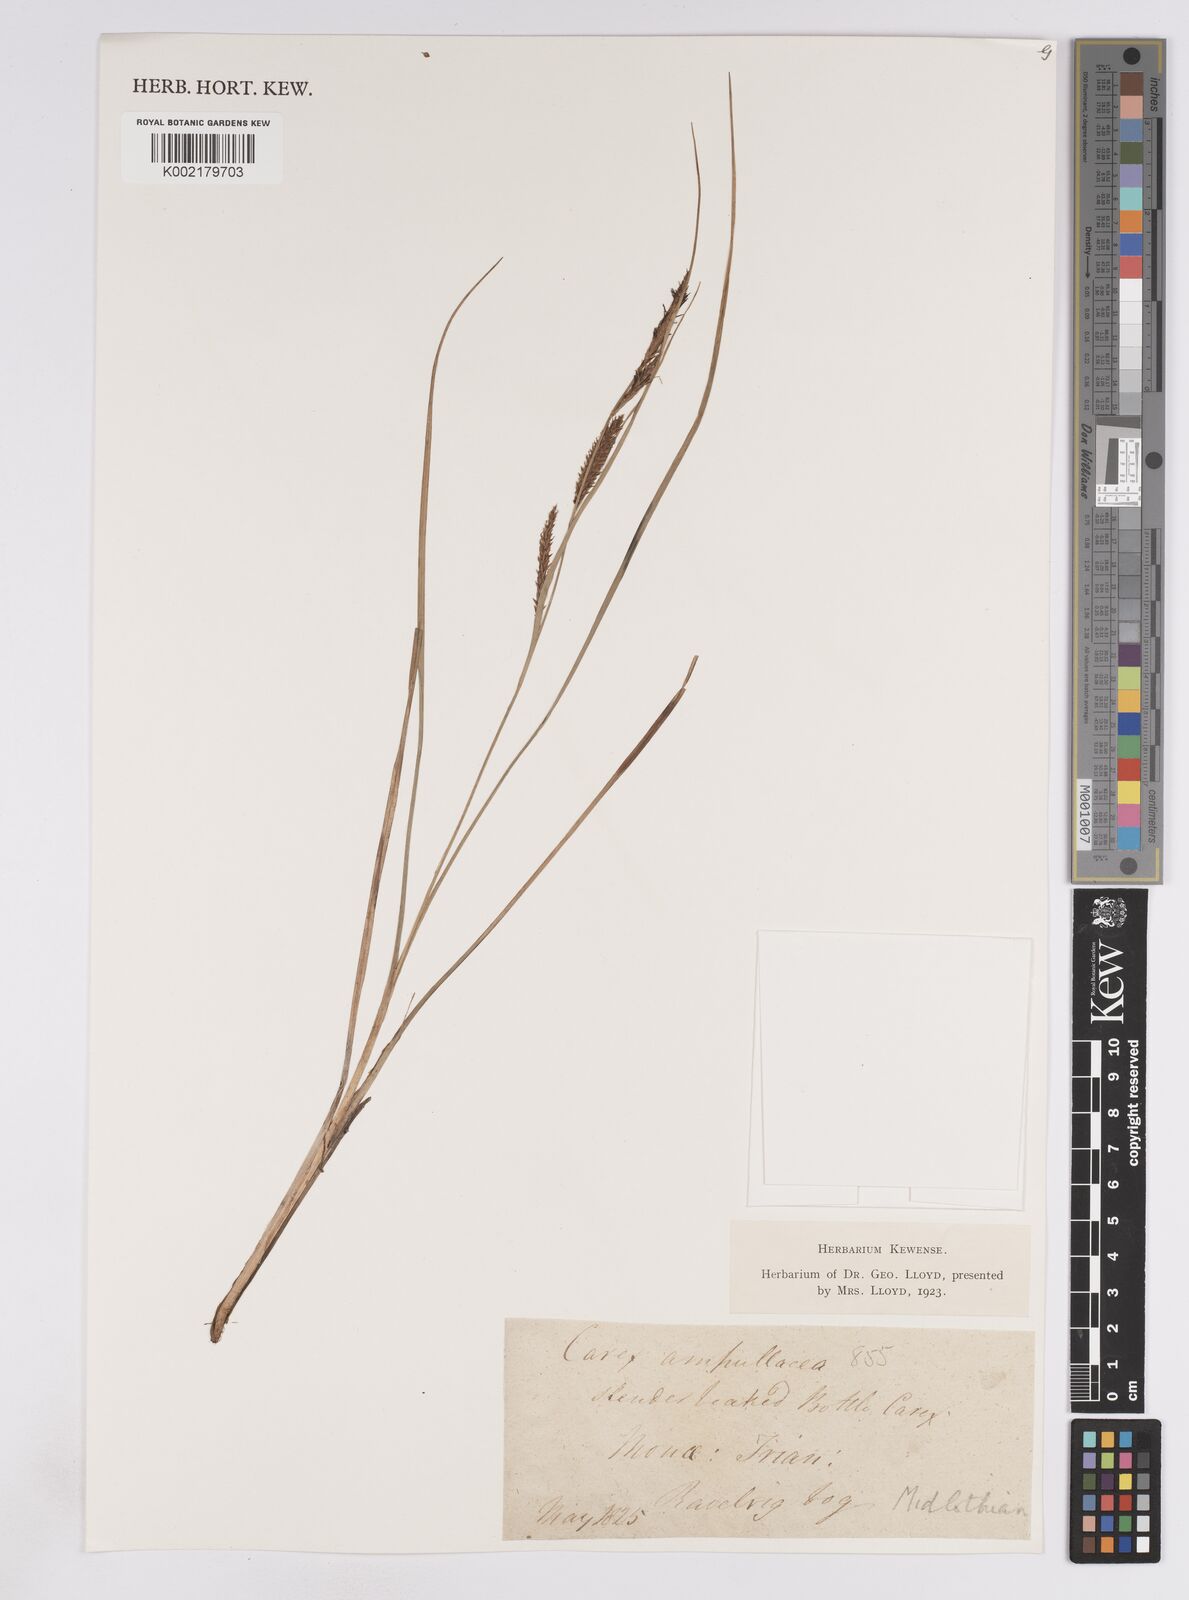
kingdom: Plantae
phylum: Tracheophyta
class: Liliopsida
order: Poales
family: Cyperaceae
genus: Carex
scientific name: Carex rostrata
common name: Bottle sedge
